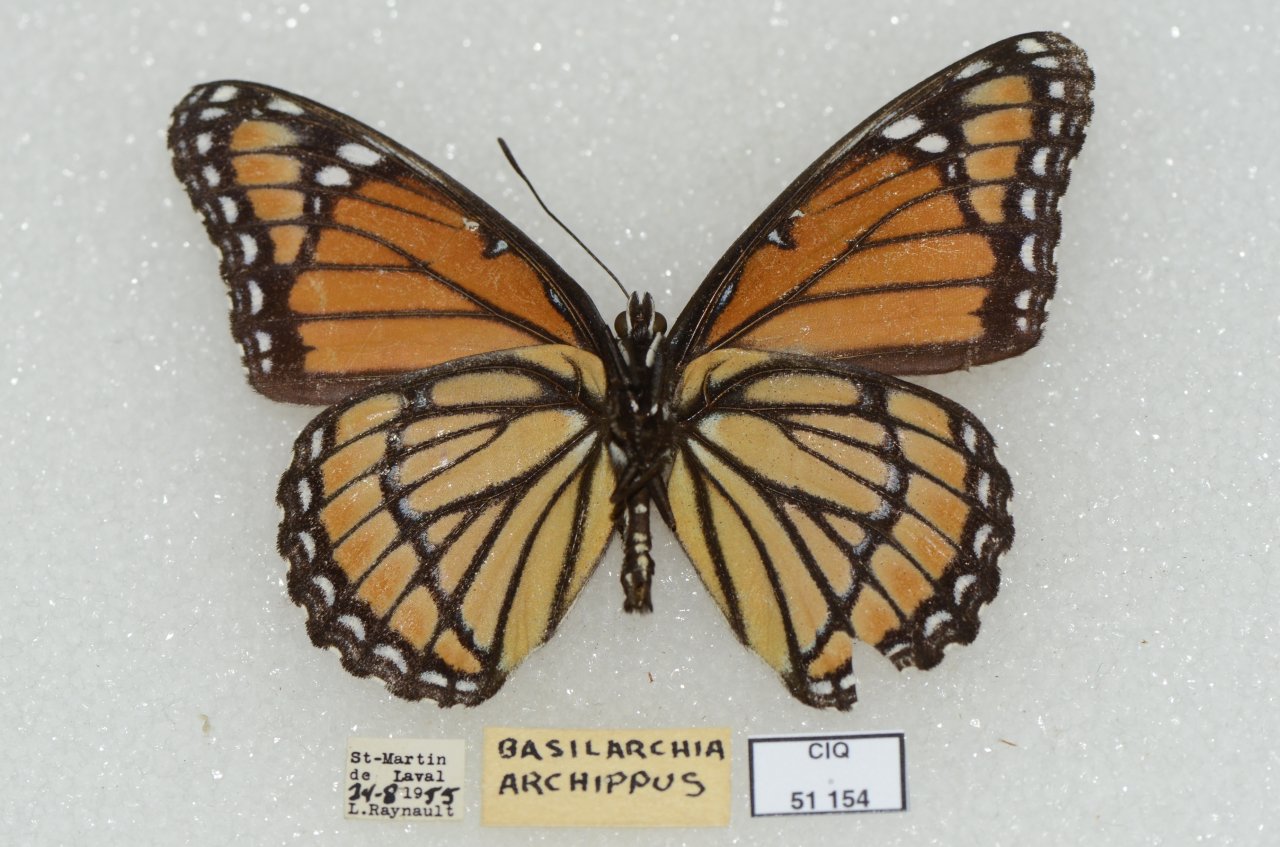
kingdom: Animalia
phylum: Arthropoda
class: Insecta
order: Lepidoptera
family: Nymphalidae
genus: Limenitis
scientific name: Limenitis archippus
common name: Viceroy
